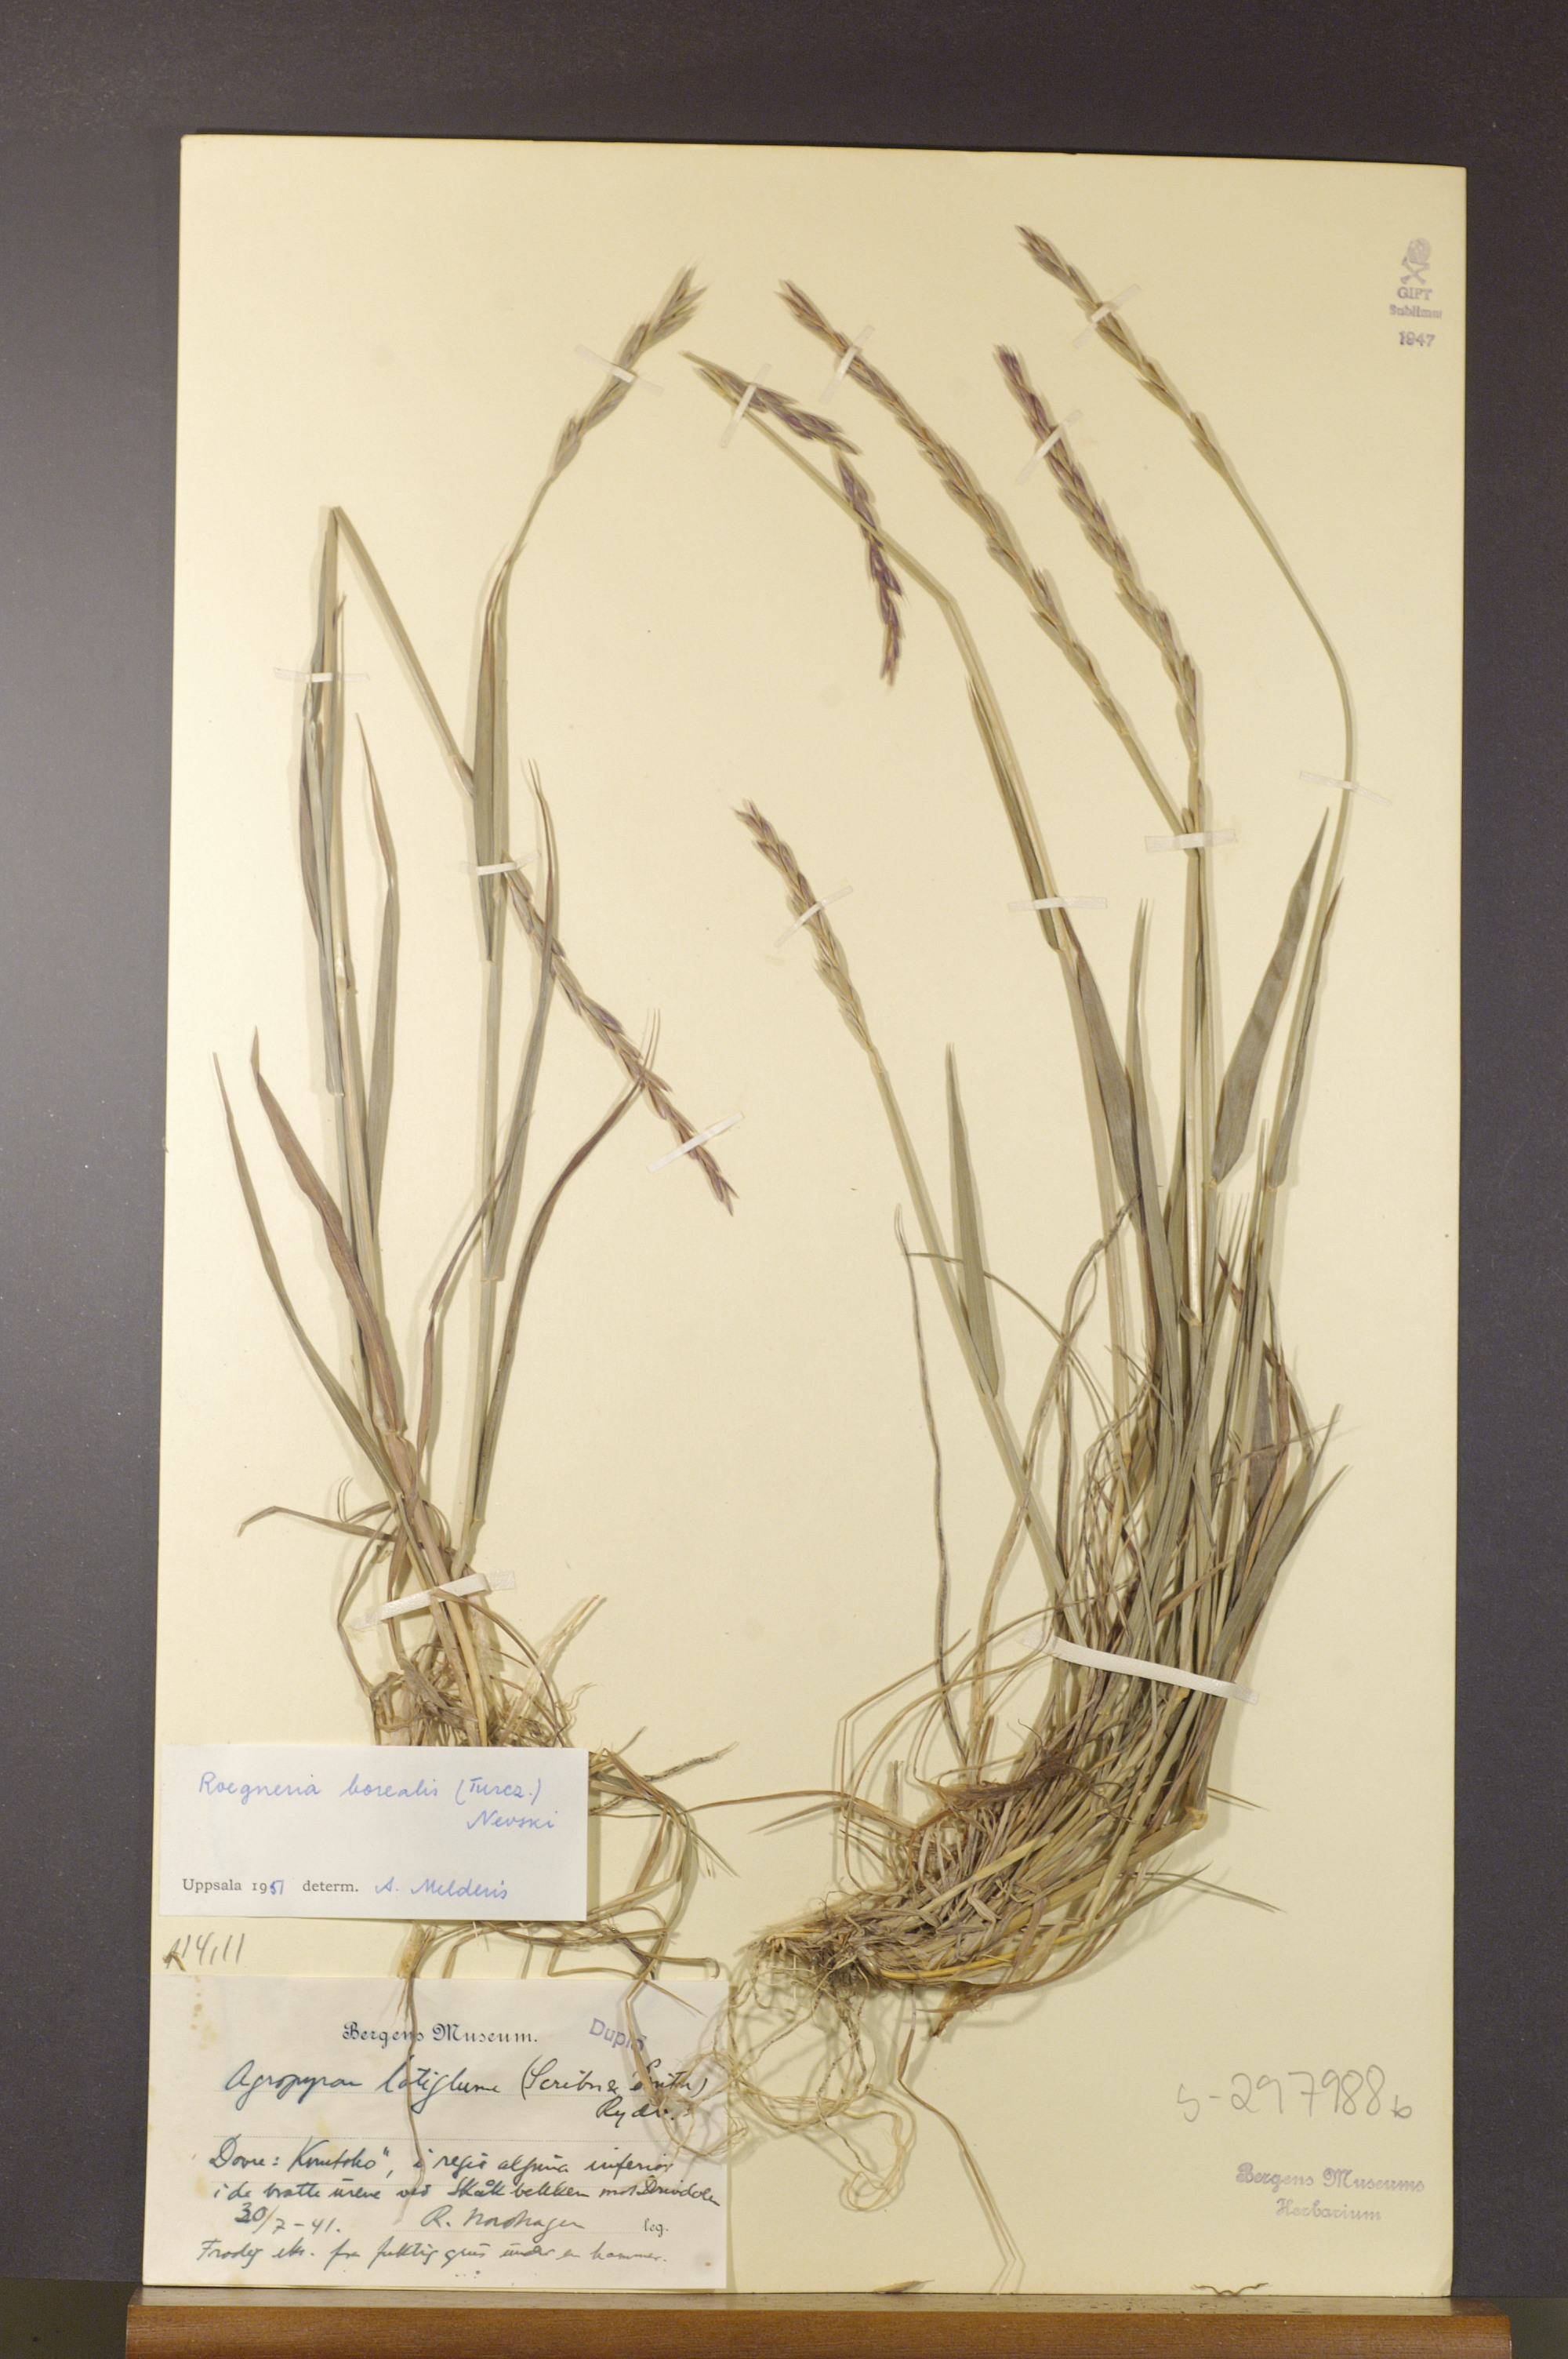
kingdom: Plantae
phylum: Tracheophyta
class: Liliopsida
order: Poales
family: Poaceae
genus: Elymus
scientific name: Elymus macrourus
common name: Northern wheatgrass
